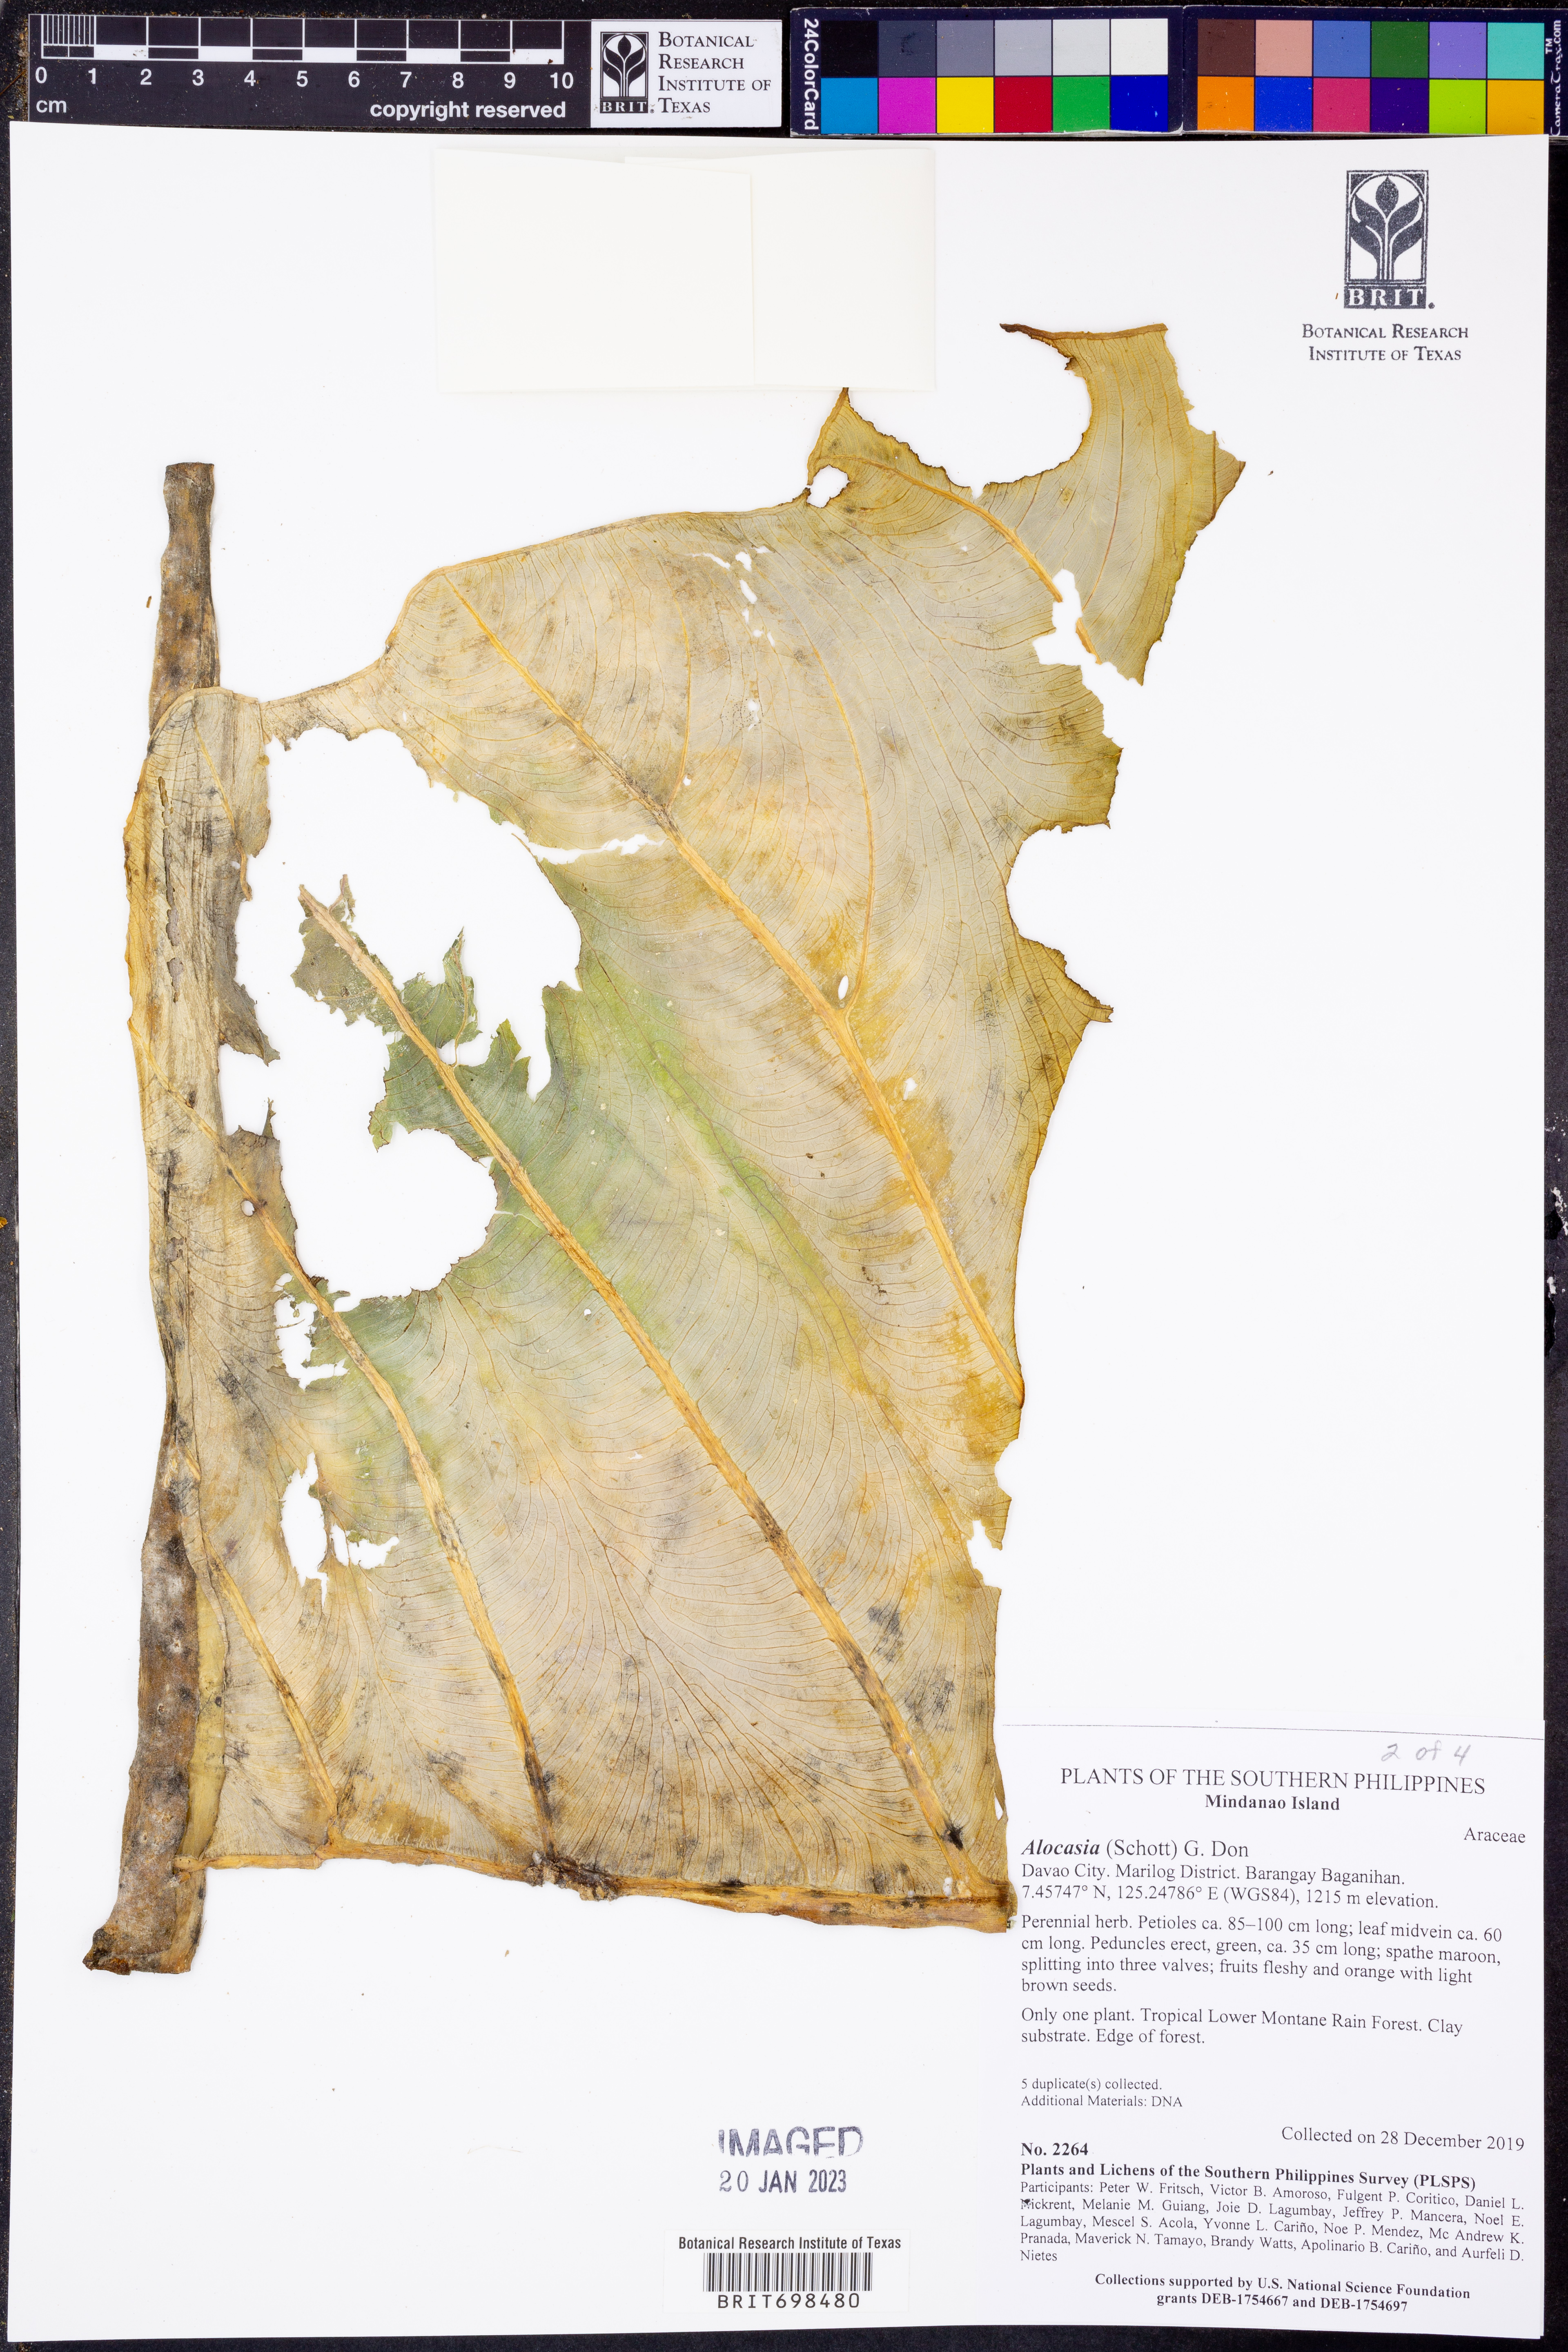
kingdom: Plantae
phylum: Tracheophyta
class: Liliopsida
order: Alismatales
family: Araceae
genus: Alocasia
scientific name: Alocasia
